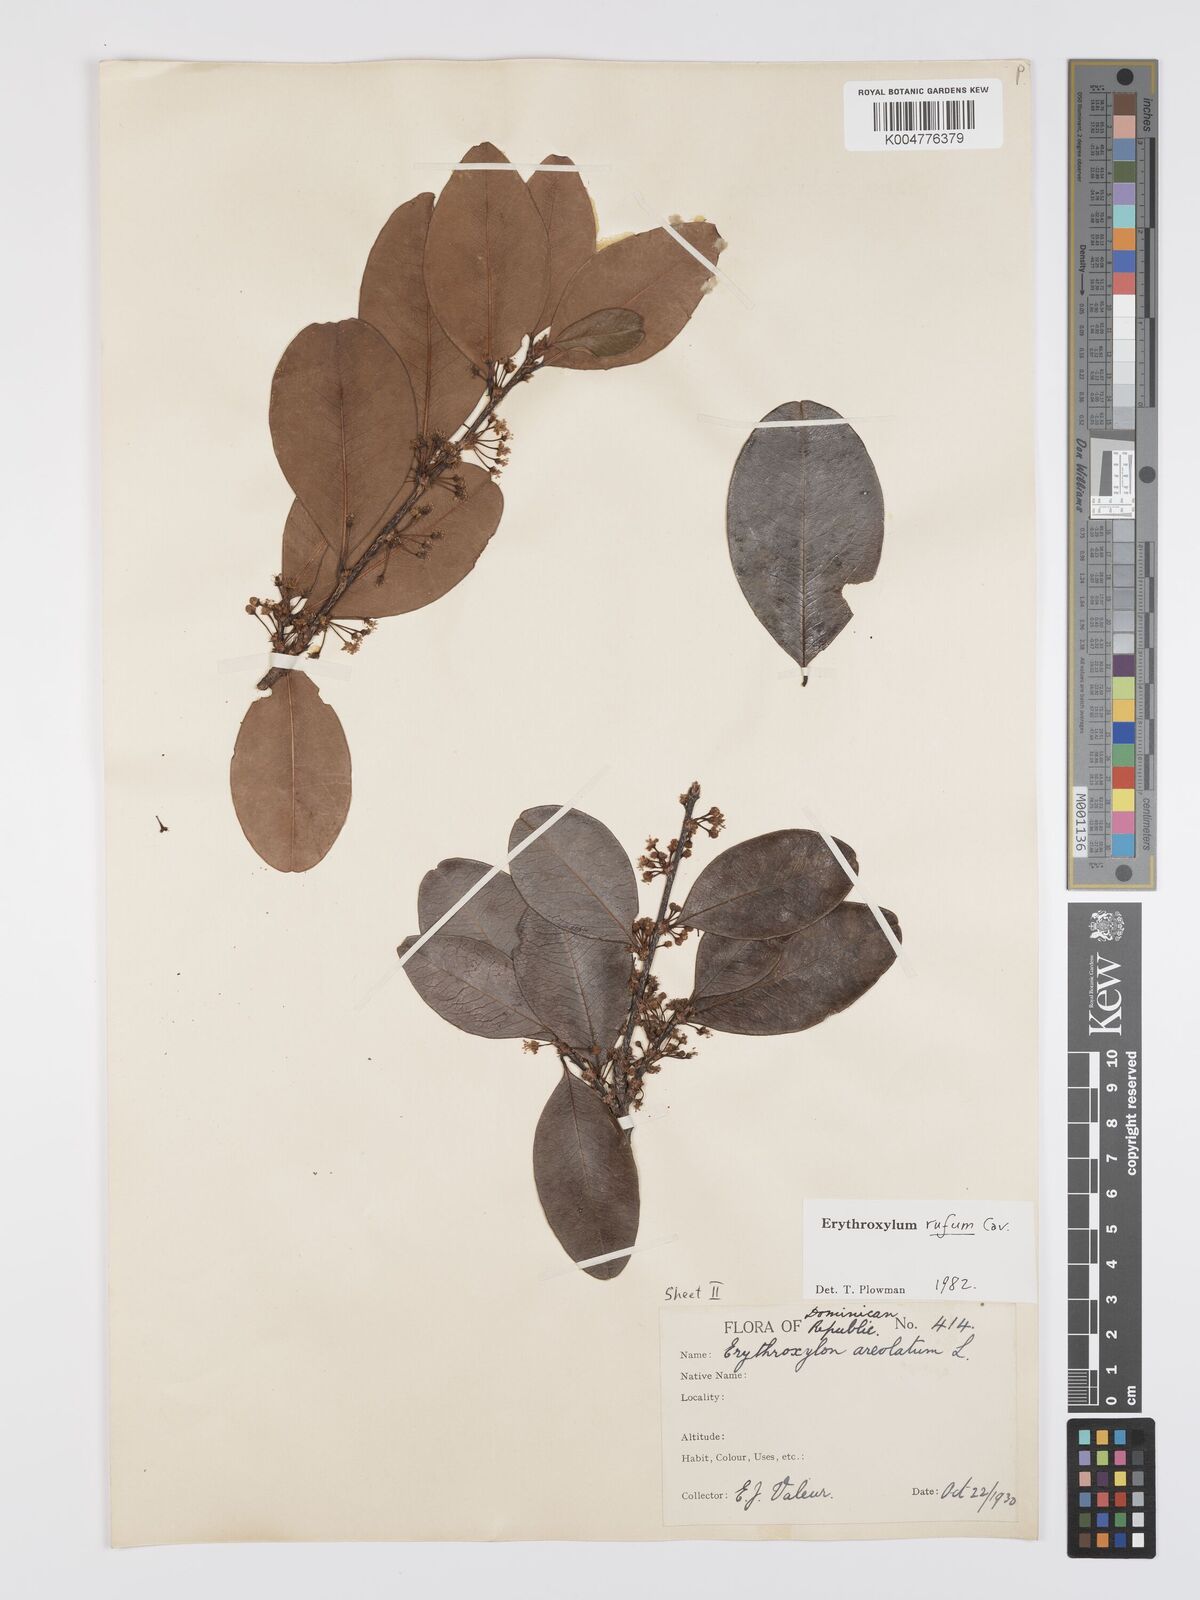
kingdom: Plantae
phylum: Tracheophyta
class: Magnoliopsida
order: Malpighiales
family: Erythroxylaceae
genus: Erythroxylum
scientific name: Erythroxylum rufum
